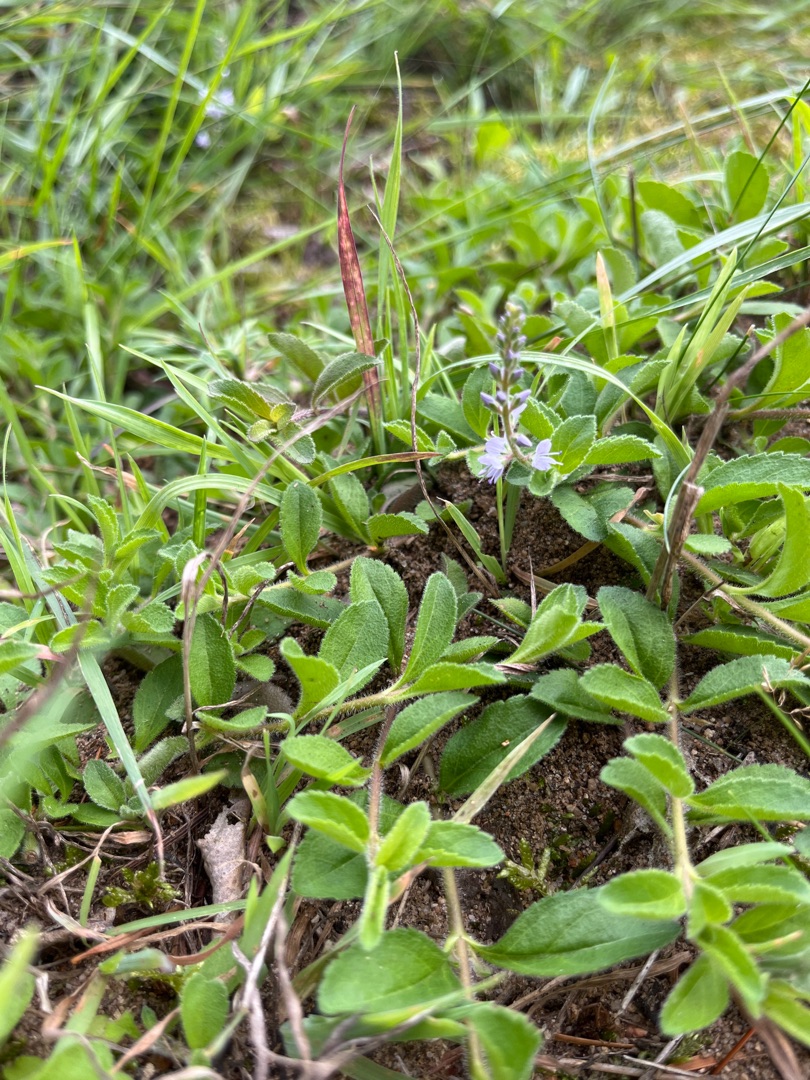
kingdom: Plantae
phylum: Tracheophyta
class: Magnoliopsida
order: Lamiales
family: Plantaginaceae
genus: Veronica
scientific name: Veronica officinalis
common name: Læge-ærenpris
